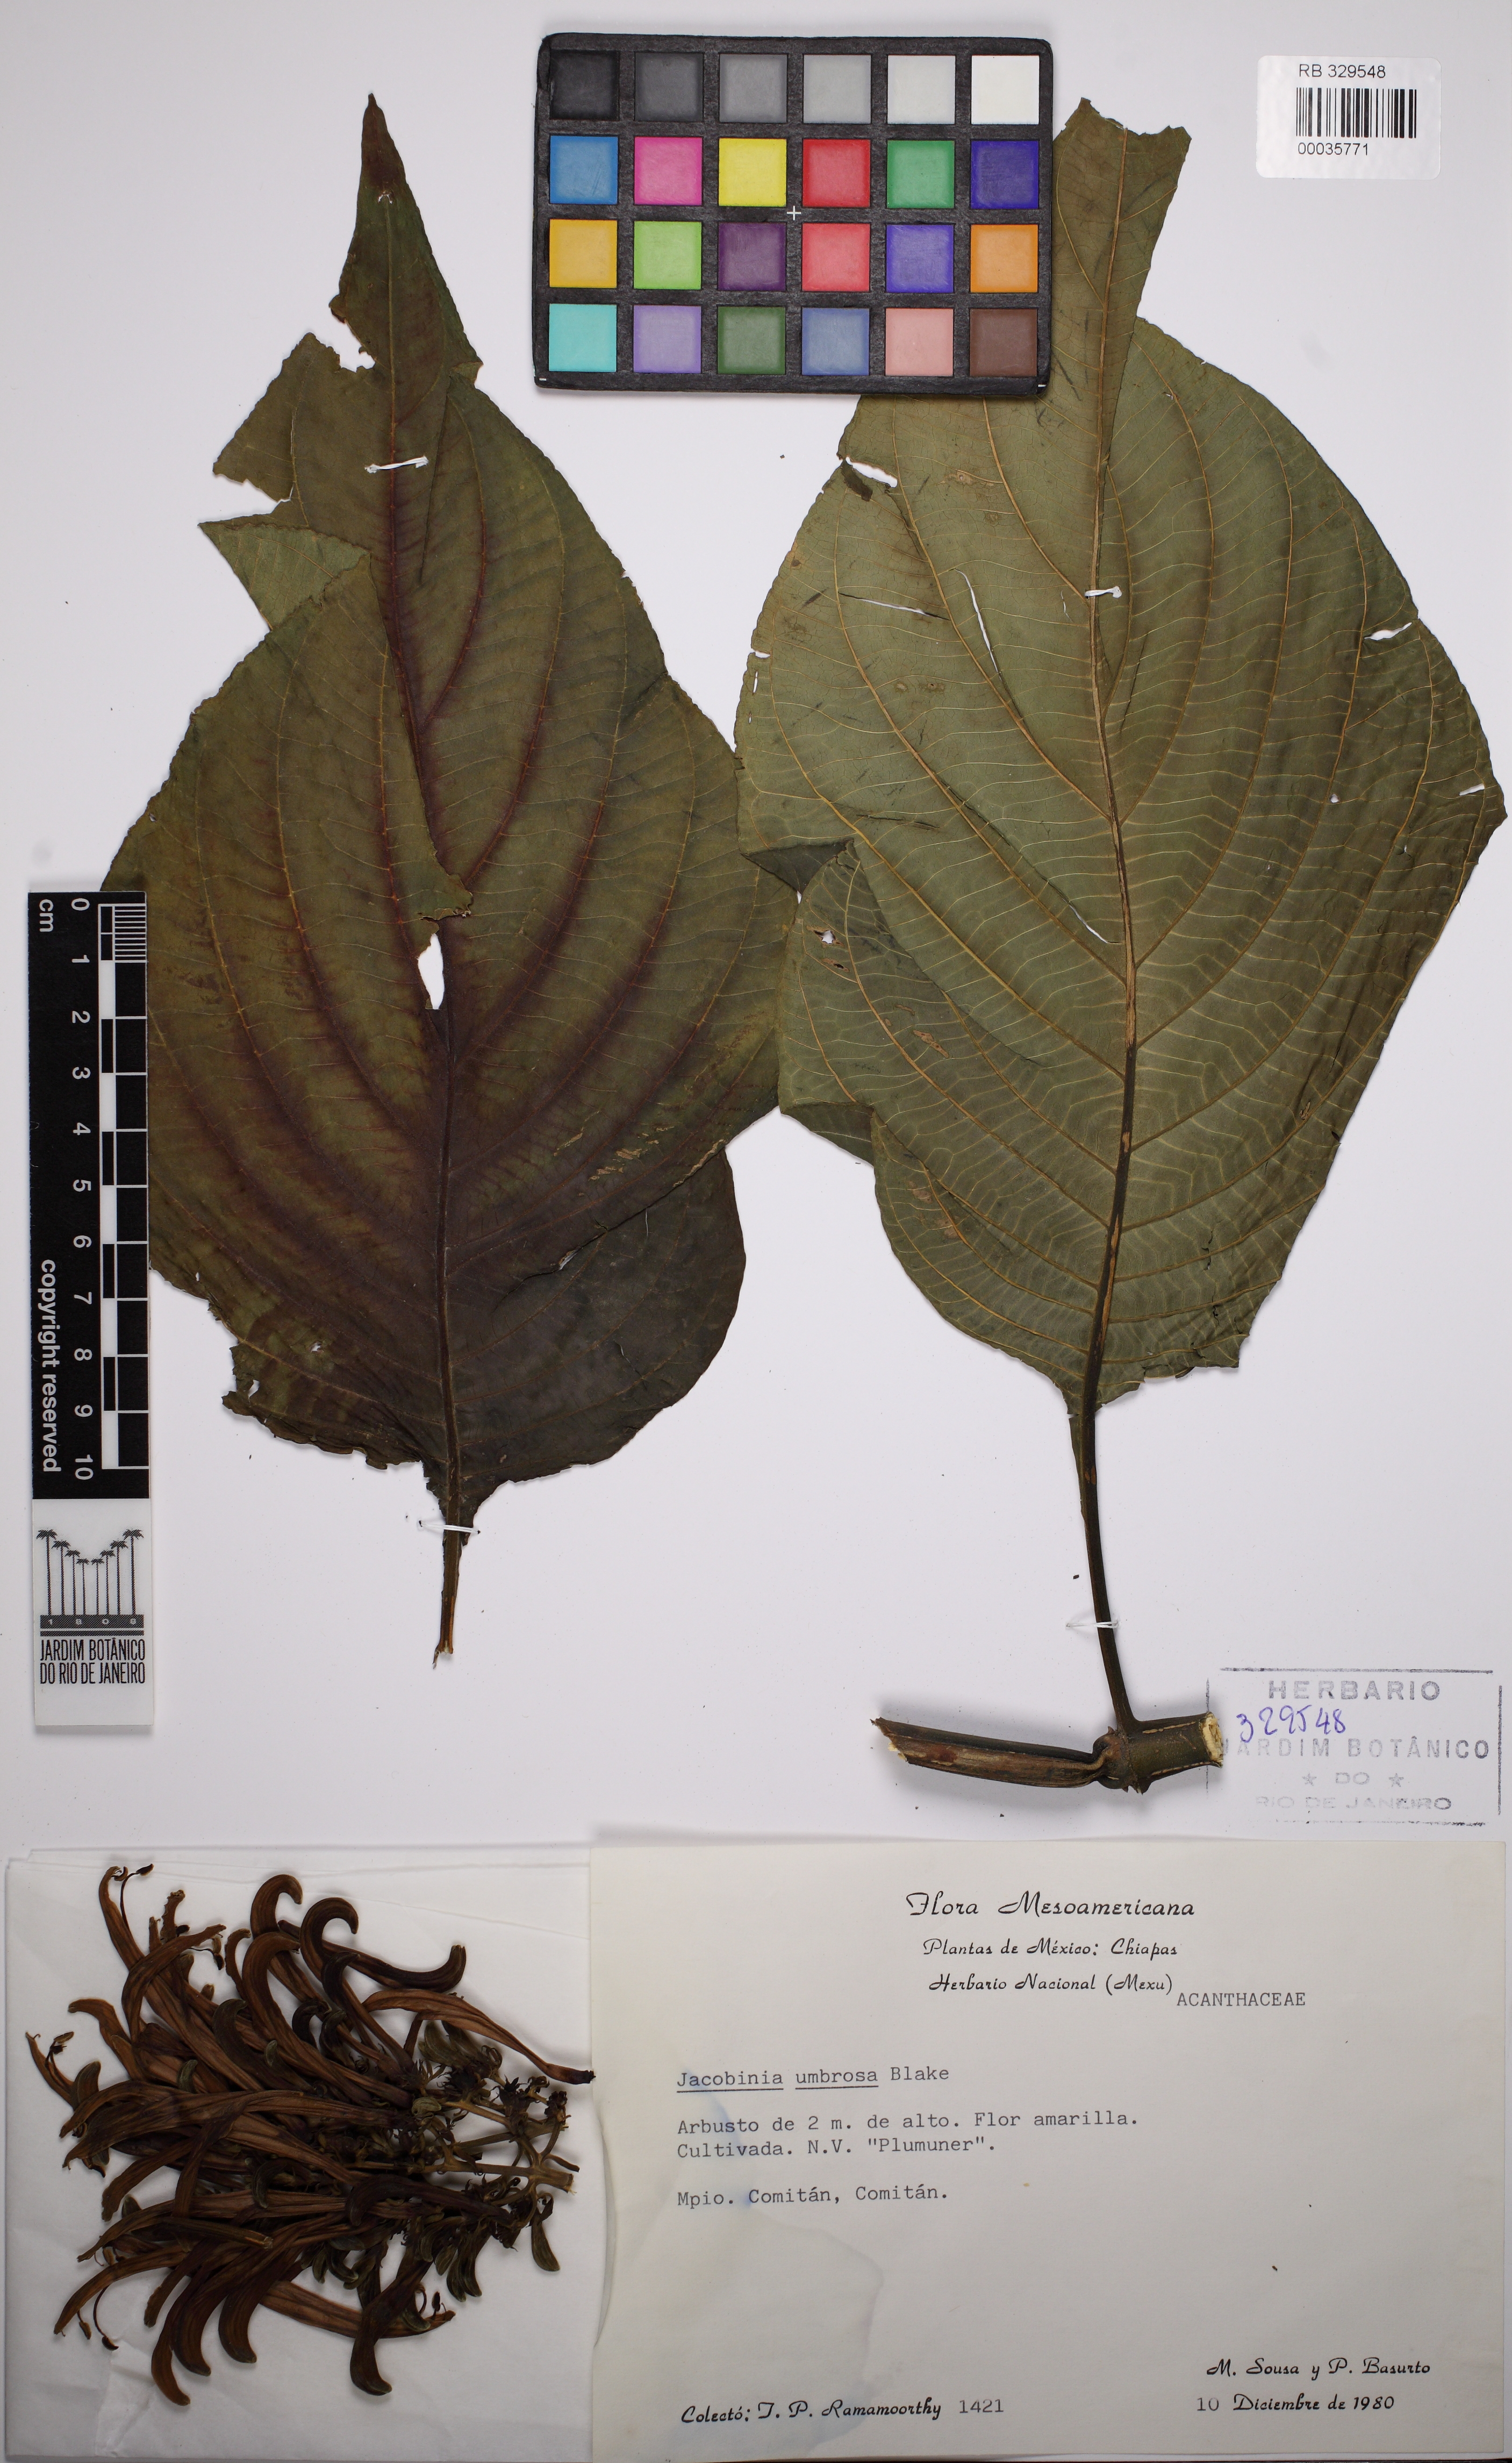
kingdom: Plantae
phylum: Tracheophyta
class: Magnoliopsida
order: Lamiales
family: Acanthaceae
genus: Justicia
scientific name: Justicia aurea
